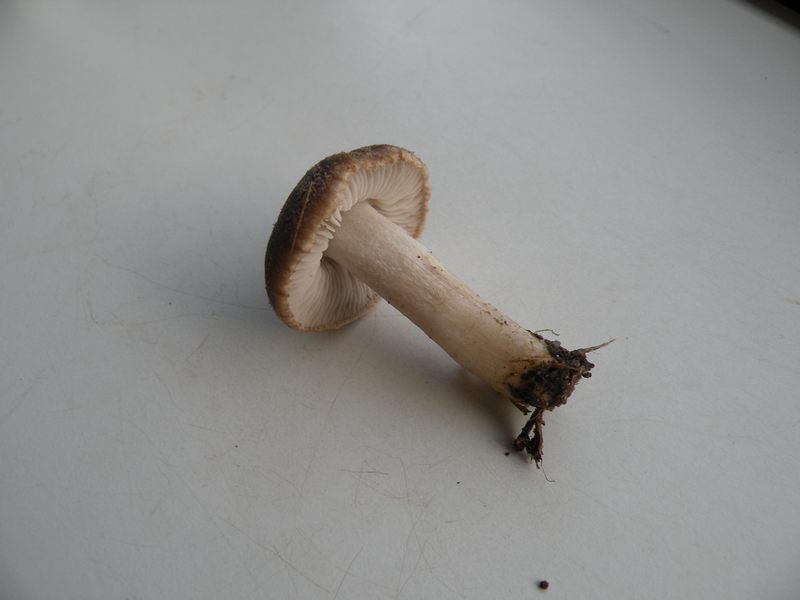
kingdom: Fungi
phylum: Basidiomycota
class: Agaricomycetes
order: Agaricales
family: Tricholomataceae
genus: Tricholoma
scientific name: Tricholoma terreum
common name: jordfarvet ridderhat
